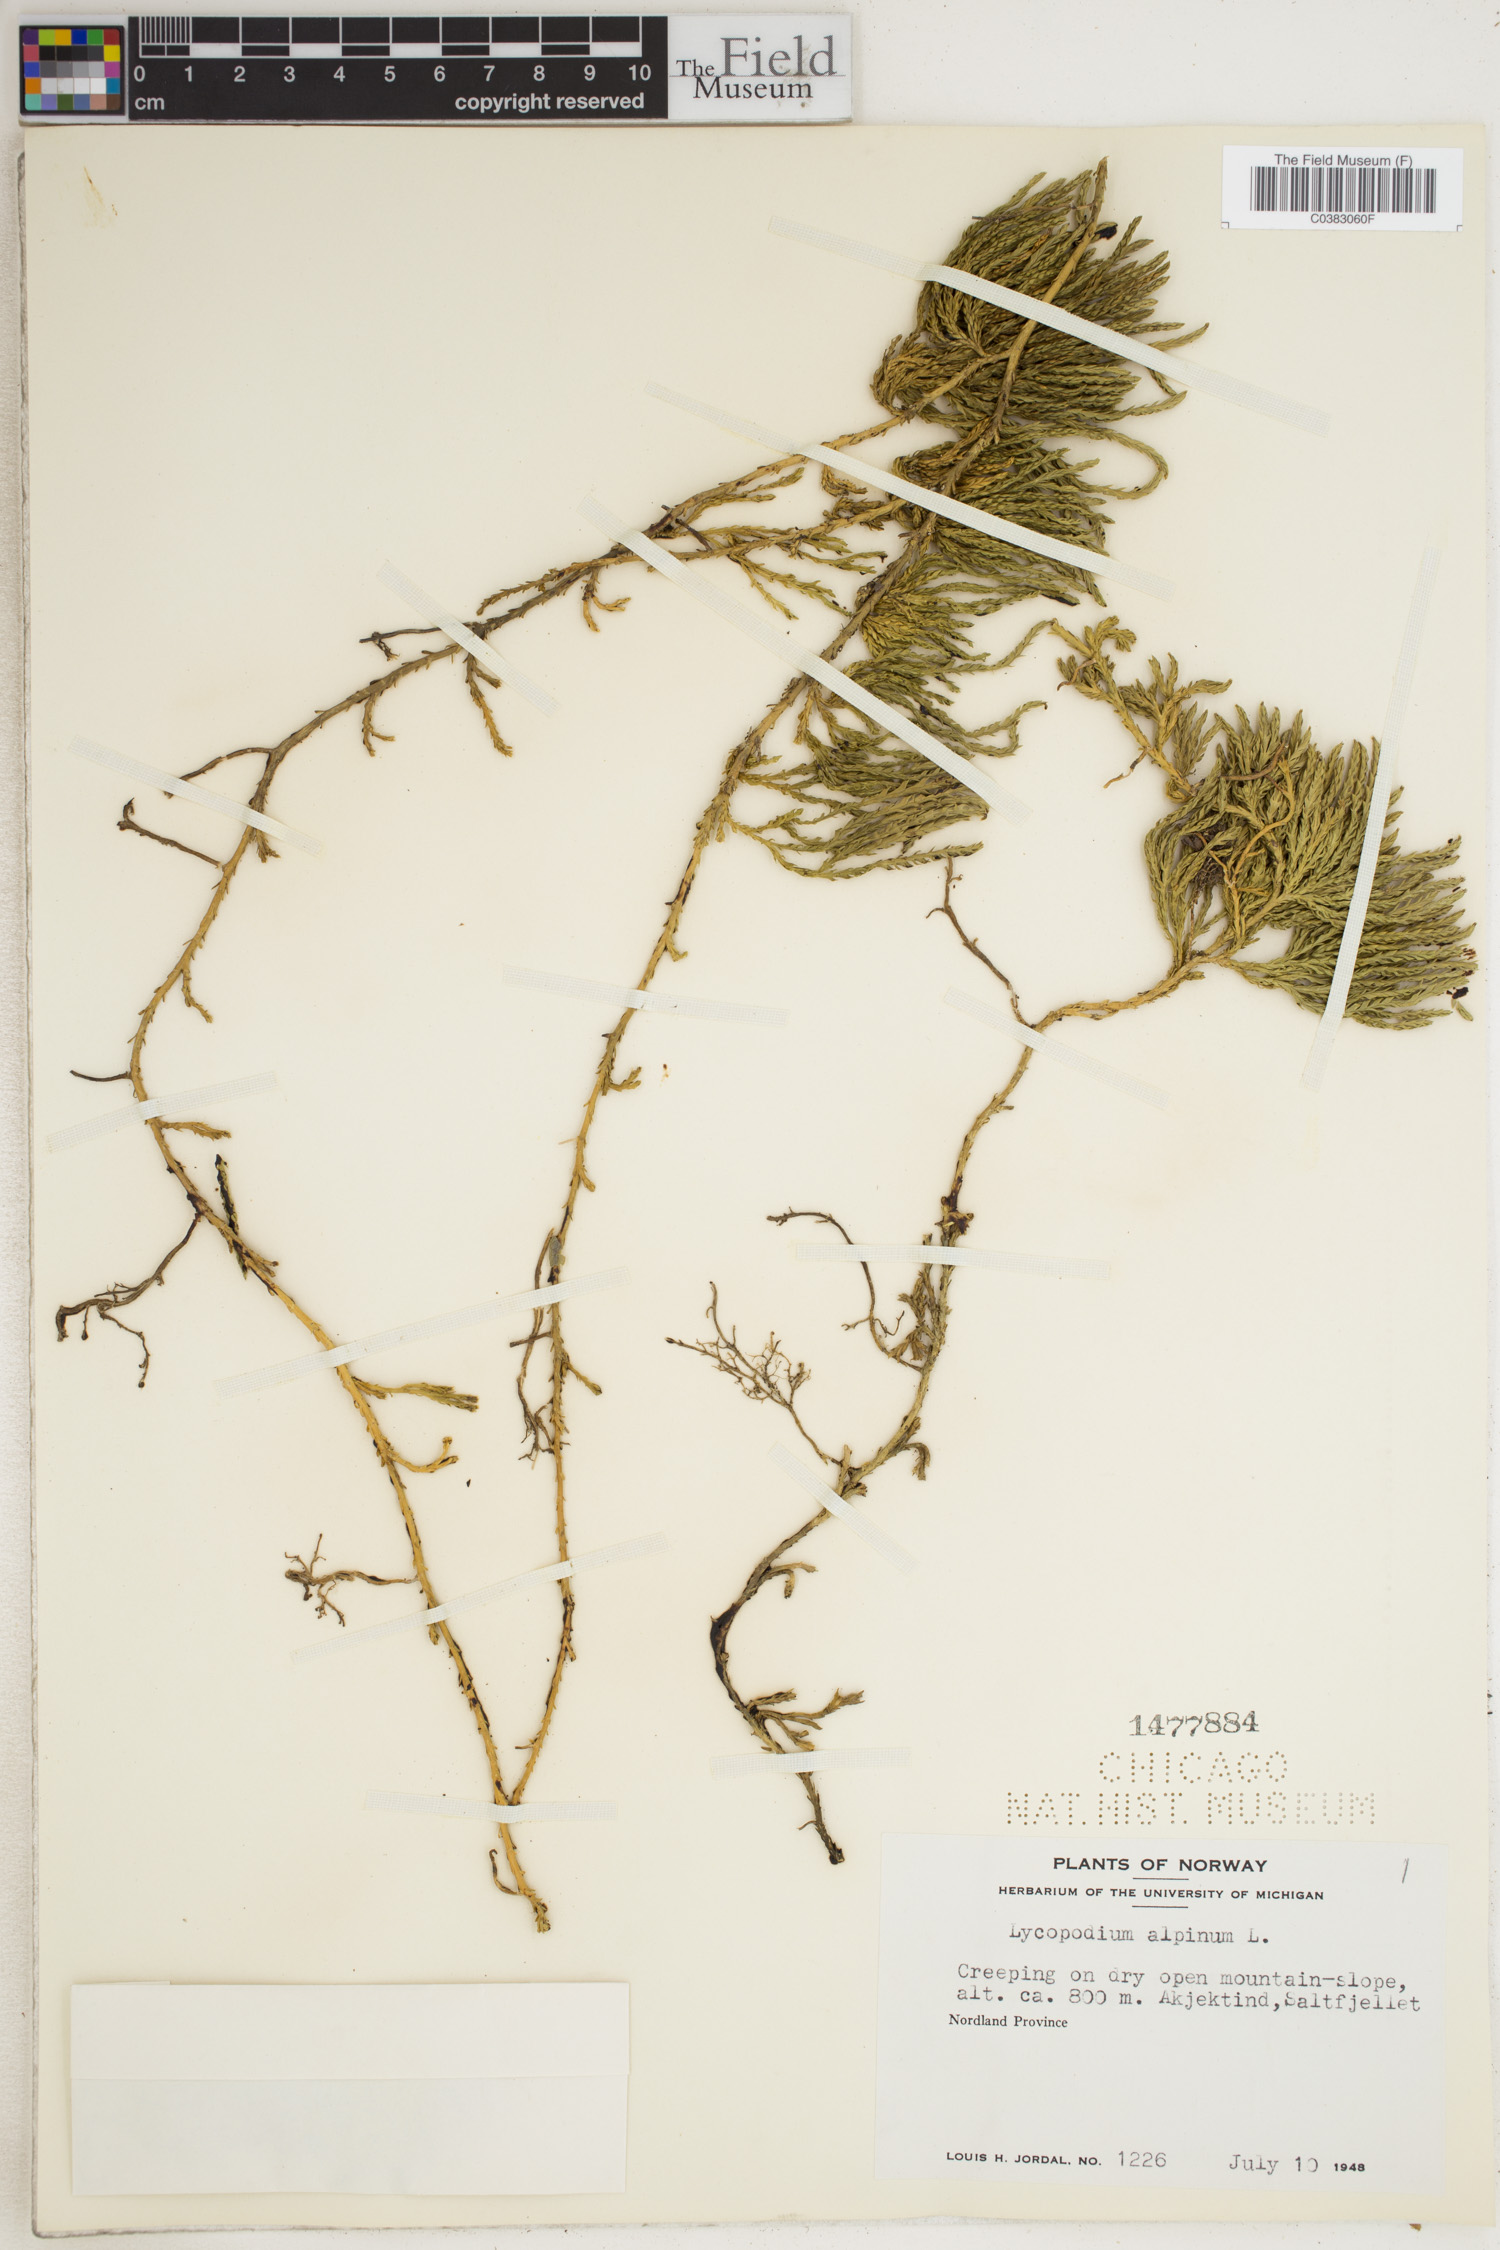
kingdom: Plantae
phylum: Tracheophyta
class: Lycopodiopsida
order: Lycopodiales
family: Lycopodiaceae
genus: Diphasiastrum
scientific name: Diphasiastrum alpinum
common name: Alpine clubmoss
